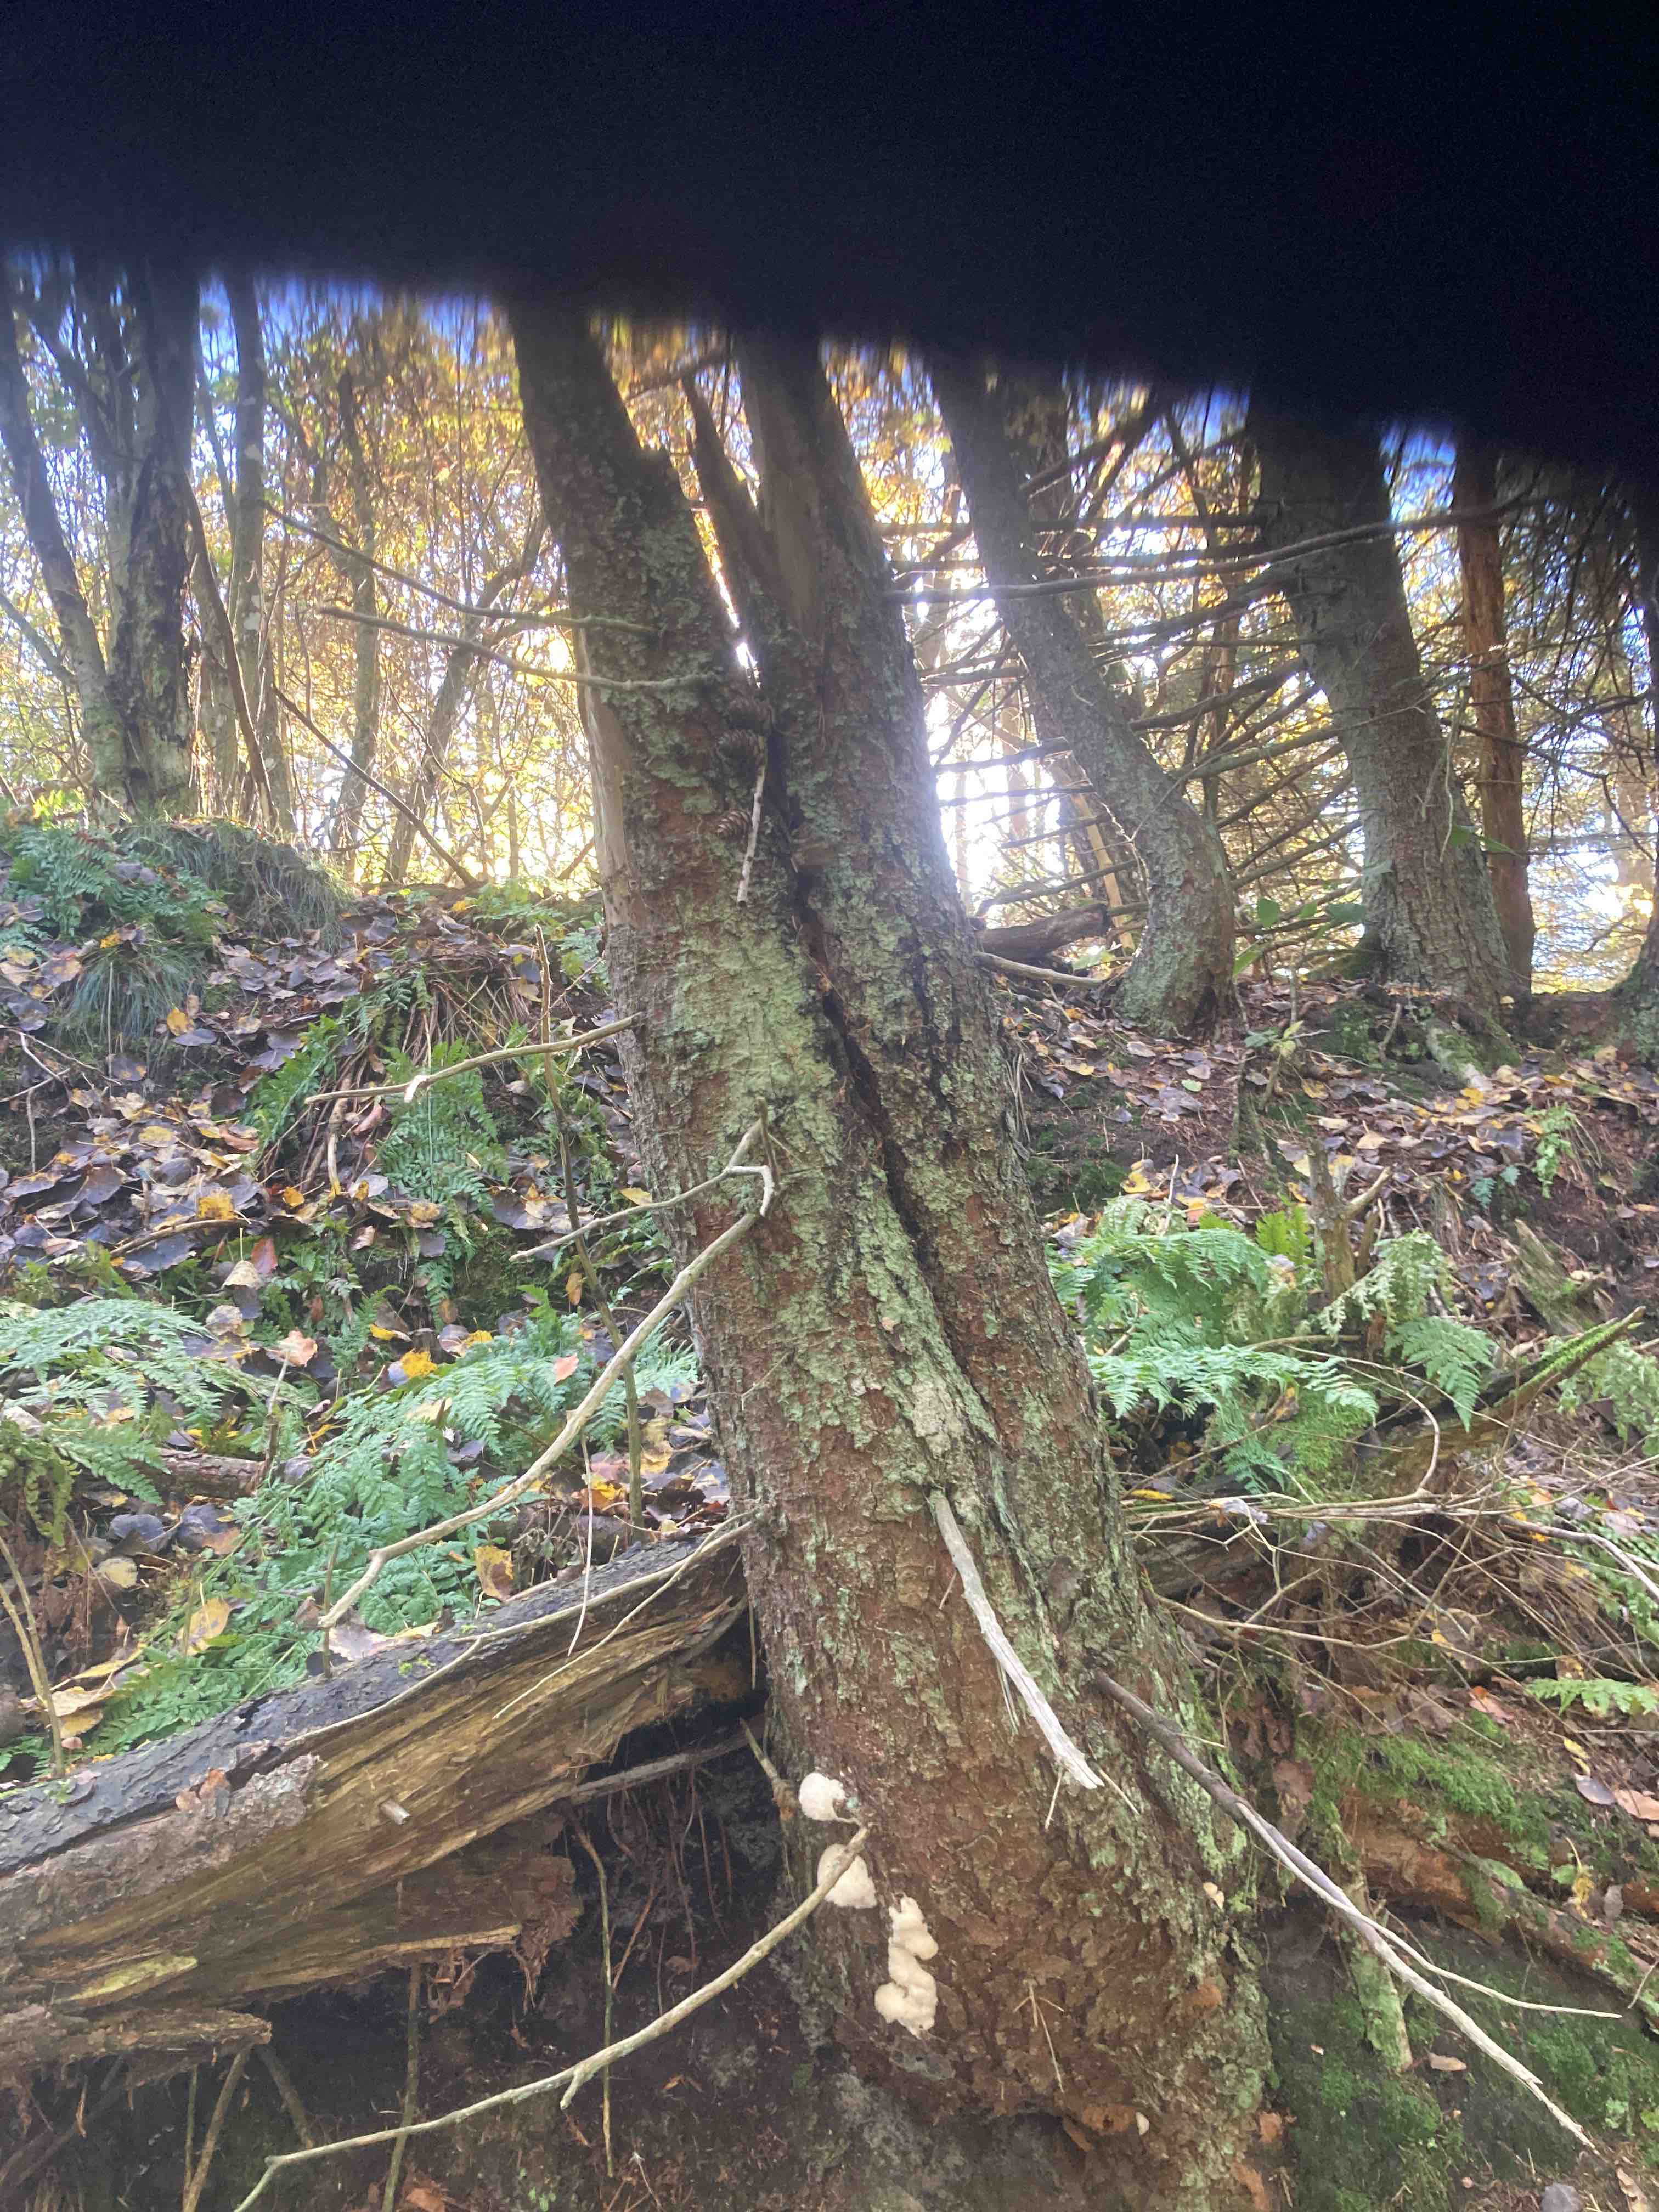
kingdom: Fungi
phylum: Basidiomycota
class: Agaricomycetes
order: Polyporales
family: Dacryobolaceae
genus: Postia
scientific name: Postia ptychogaster
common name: støvende kødporesvamp
